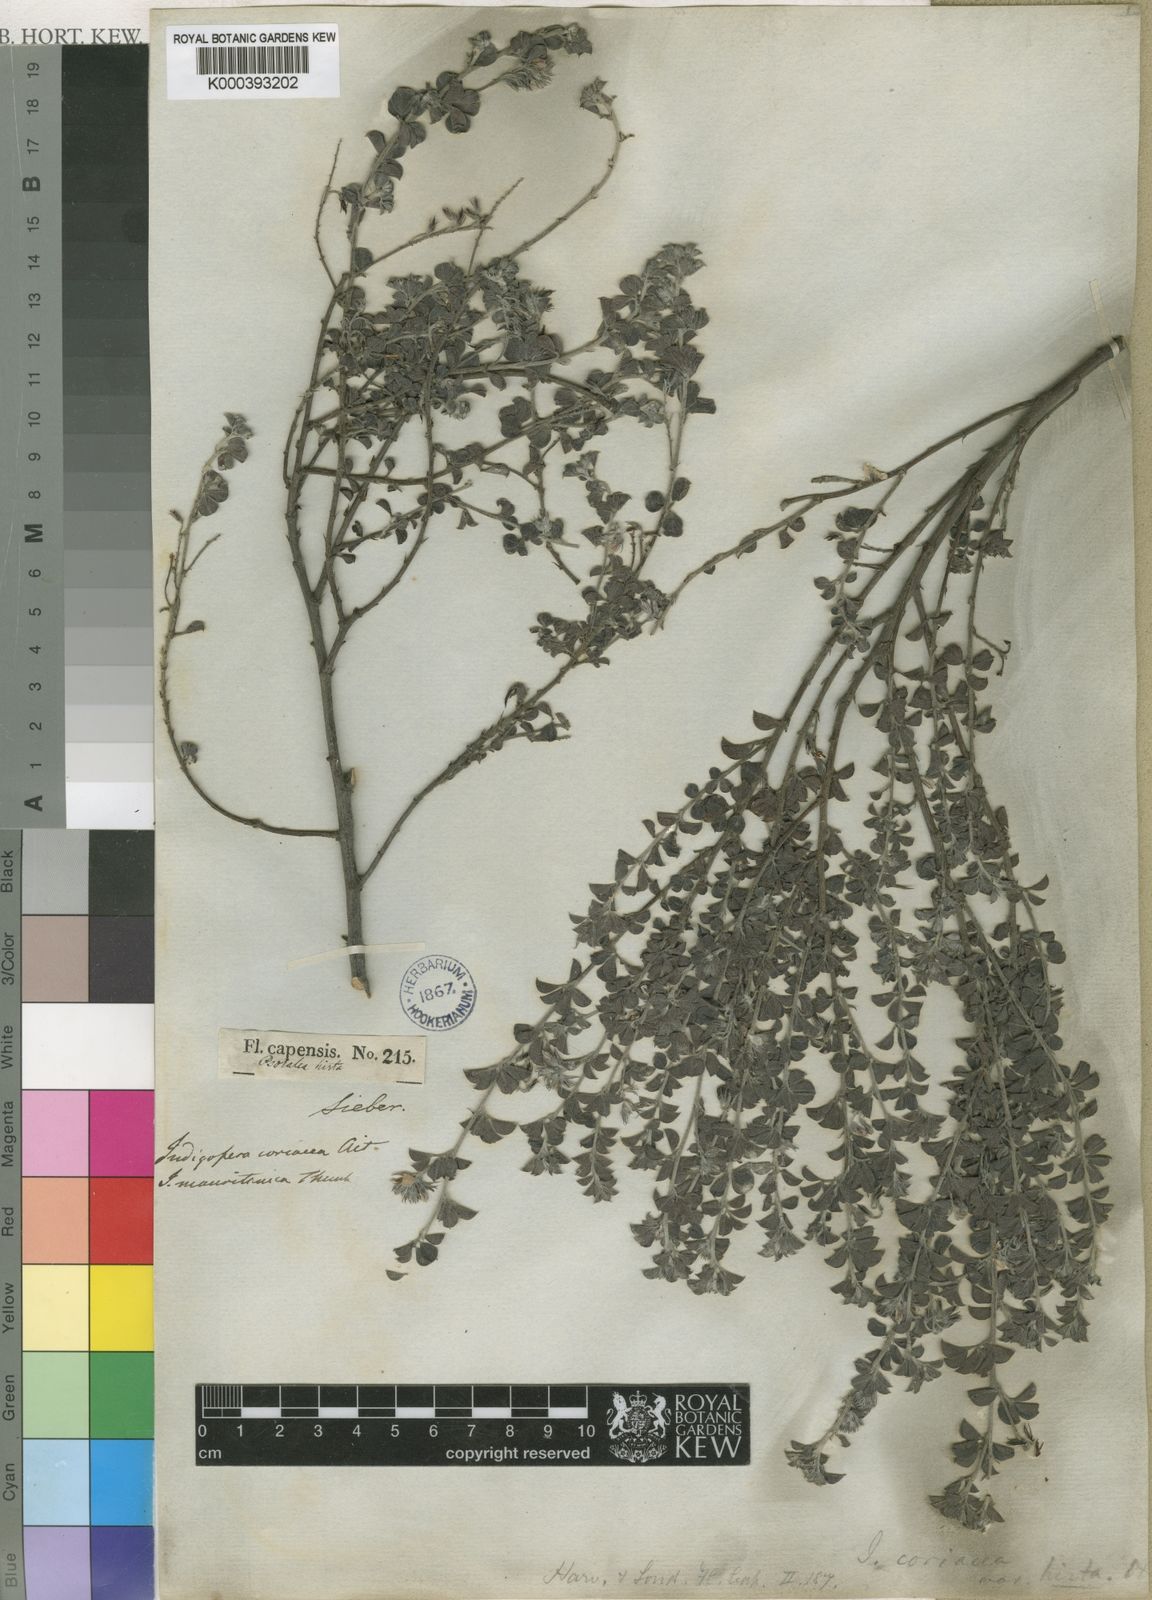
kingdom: Plantae
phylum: Tracheophyta
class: Magnoliopsida
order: Fabales
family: Fabaceae
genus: Indigofera
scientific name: Indigofera candolleana
